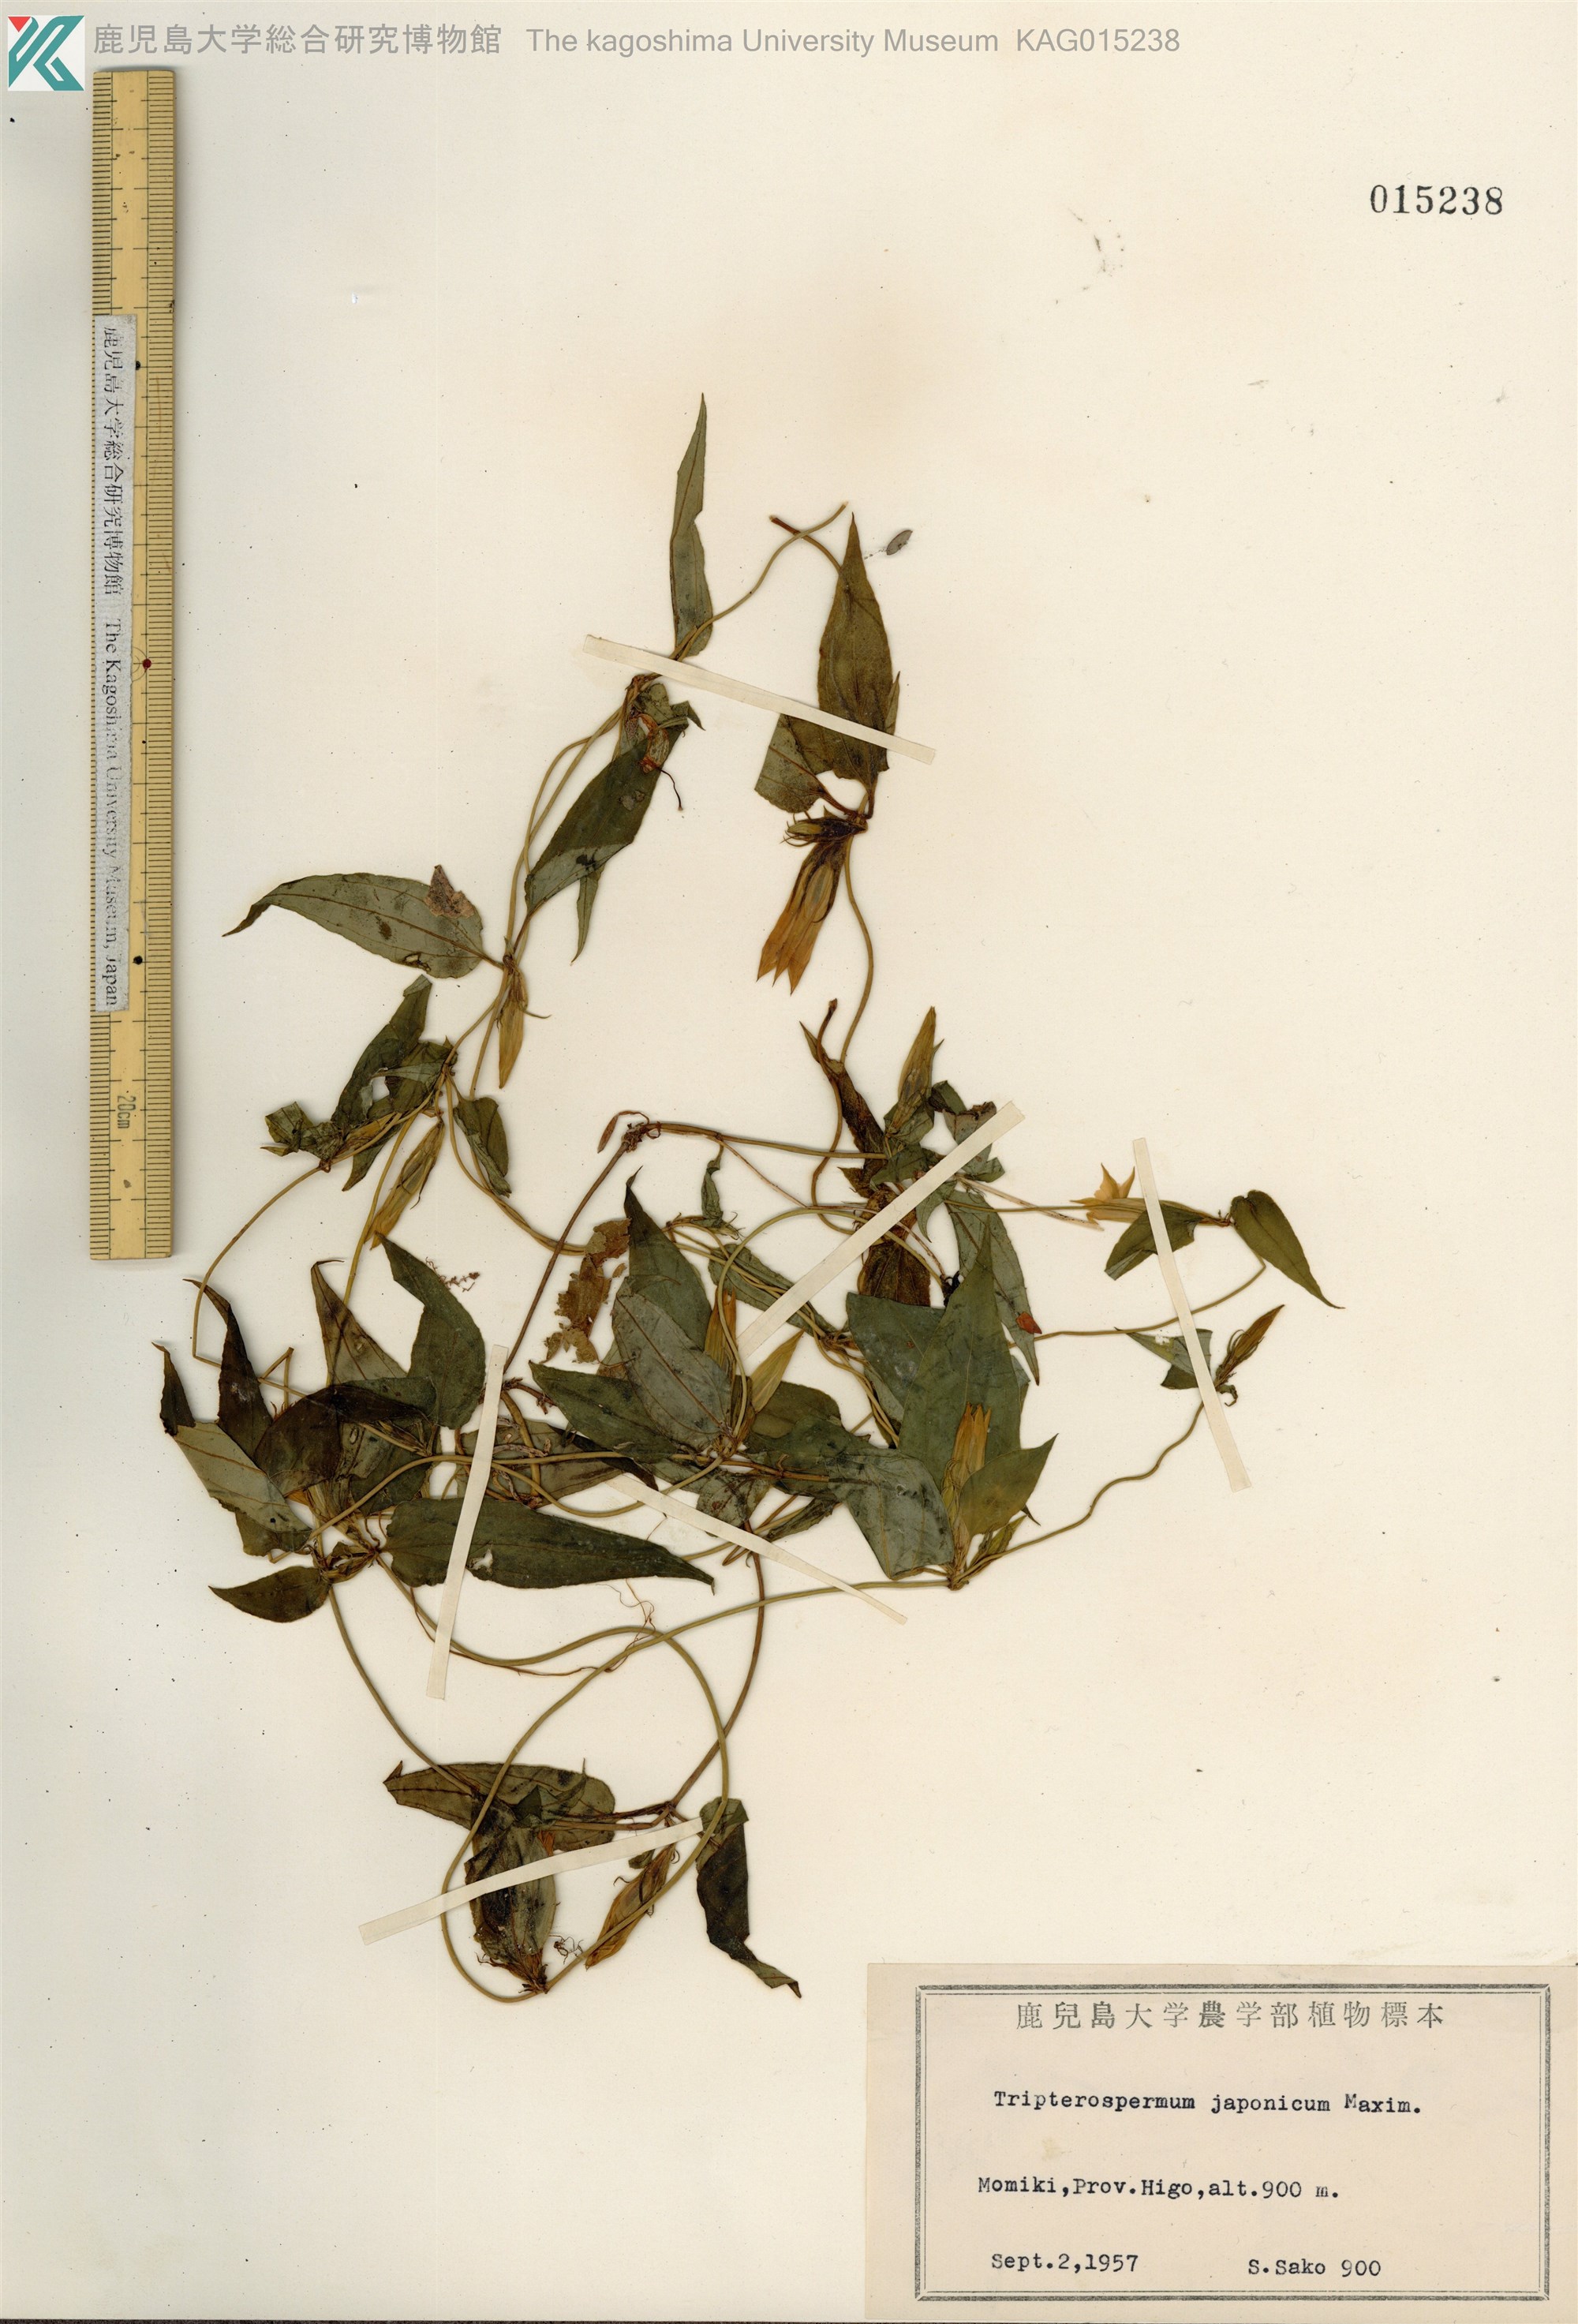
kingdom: Plantae
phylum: Tracheophyta
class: Magnoliopsida
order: Gentianales
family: Gentianaceae
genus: Tripterospermum
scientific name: Tripterospermum trinervium
